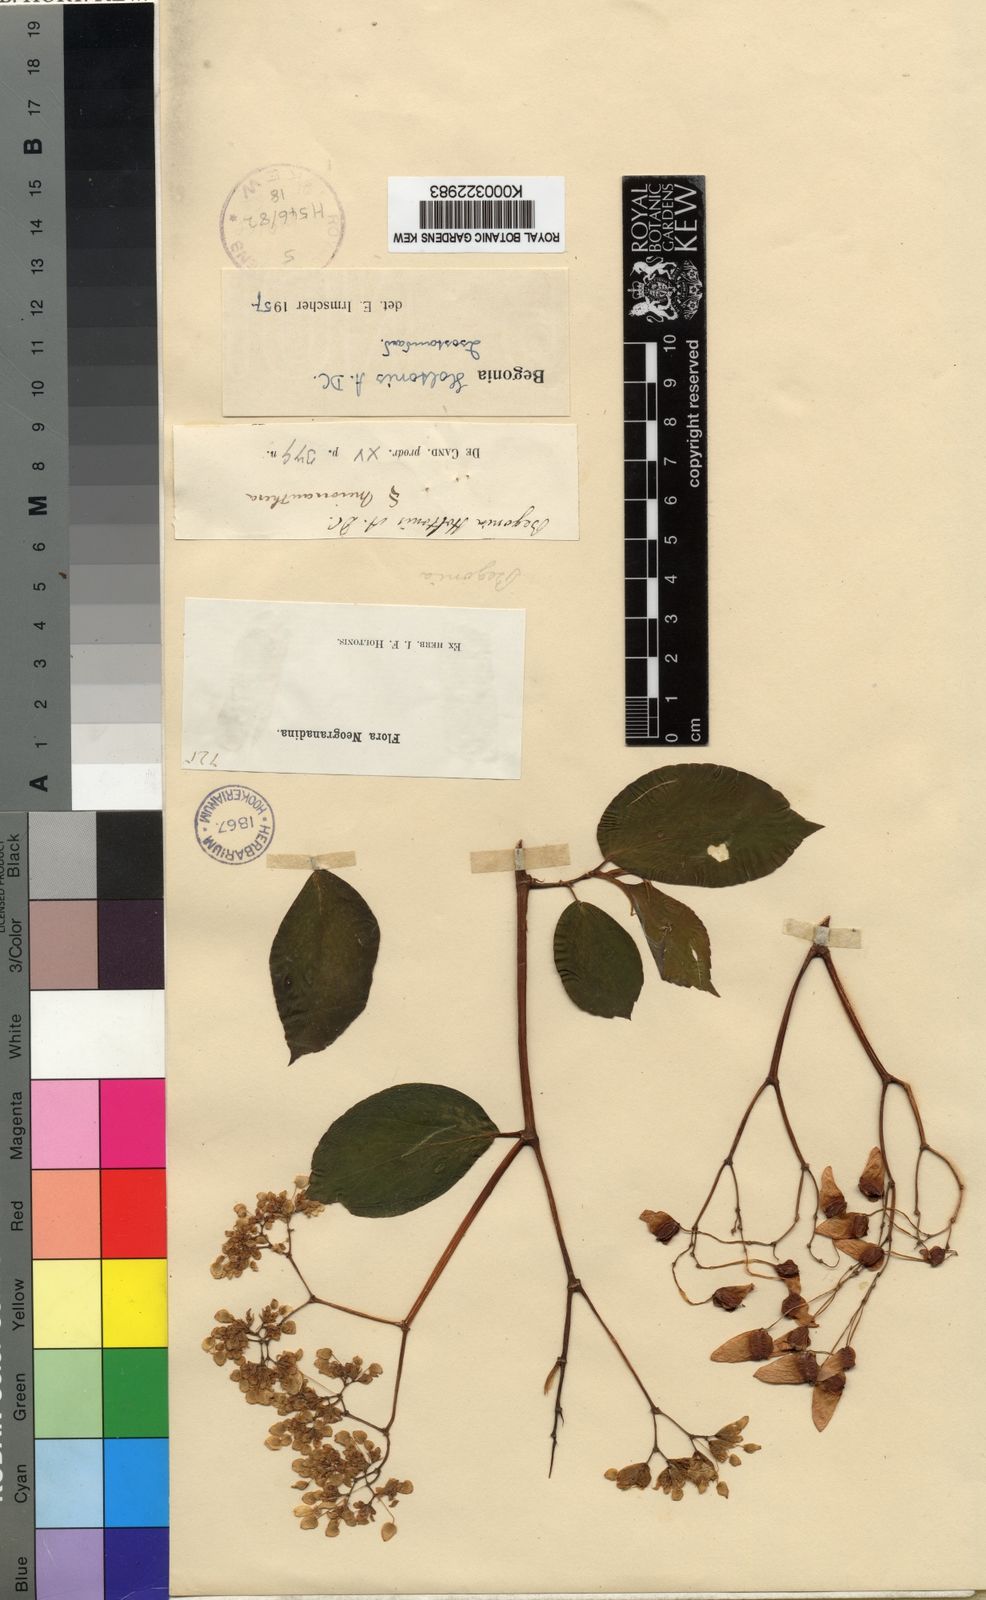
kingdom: Plantae
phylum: Tracheophyta
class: Magnoliopsida
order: Cucurbitales
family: Begoniaceae
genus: Begonia
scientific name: Begonia holtonis
